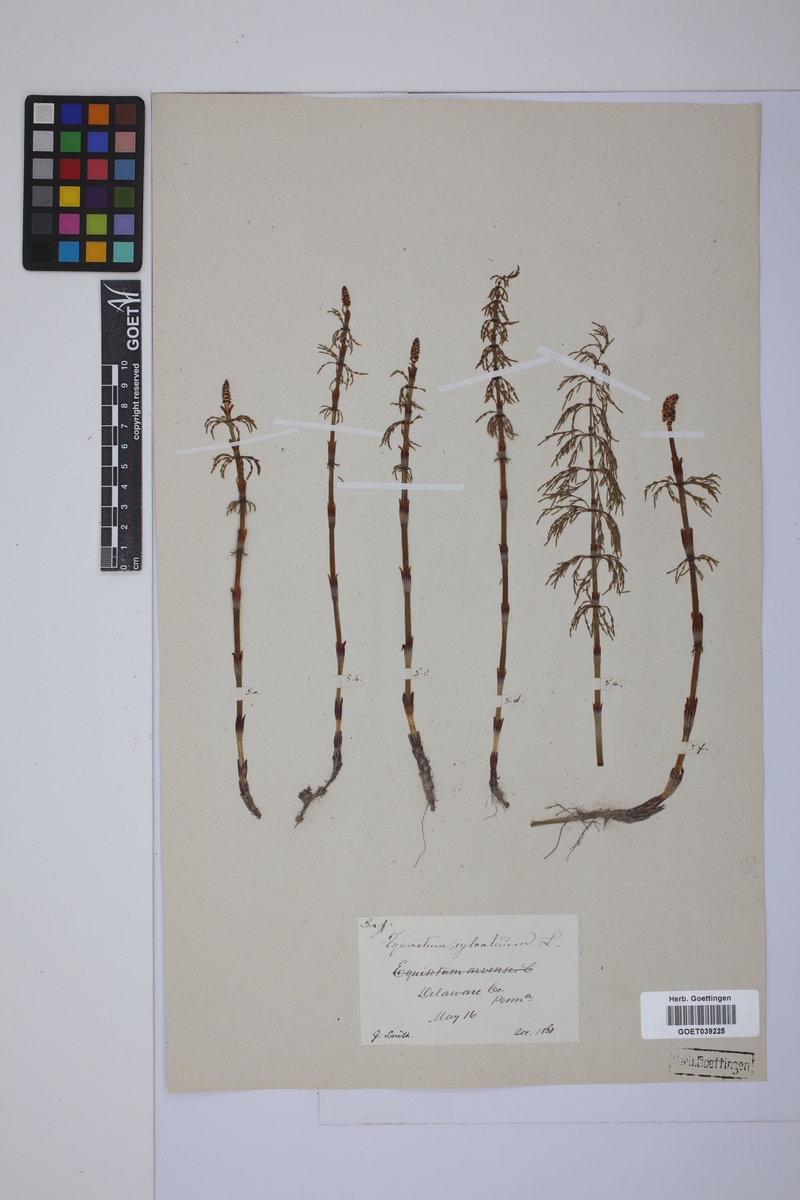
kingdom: Plantae
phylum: Tracheophyta
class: Polypodiopsida
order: Equisetales
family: Equisetaceae
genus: Equisetum
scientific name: Equisetum sylvaticum
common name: Wood horsetail
